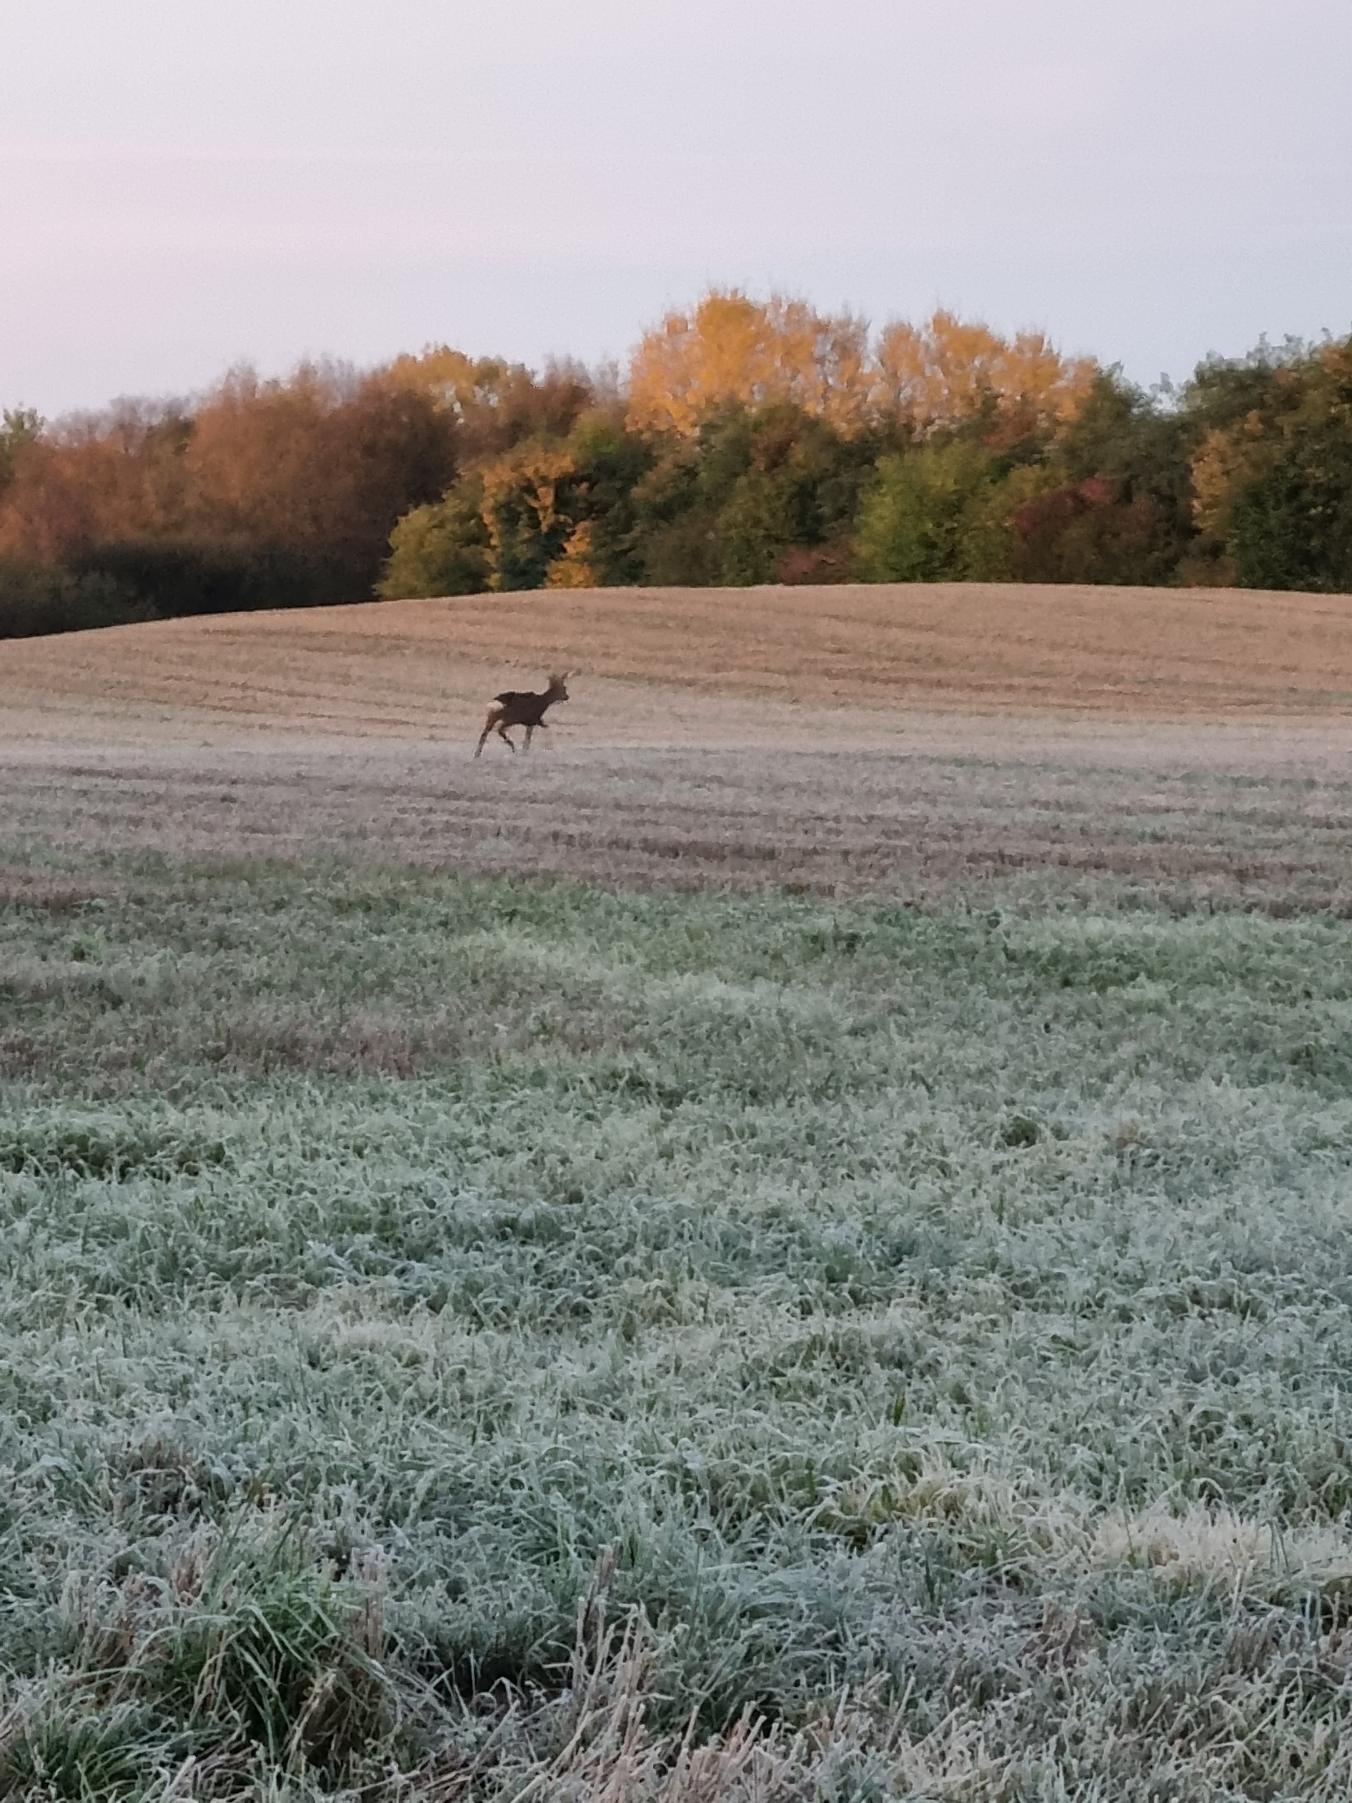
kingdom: Animalia
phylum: Chordata
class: Mammalia
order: Artiodactyla
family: Cervidae
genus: Capreolus
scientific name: Capreolus capreolus
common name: Rådyr
